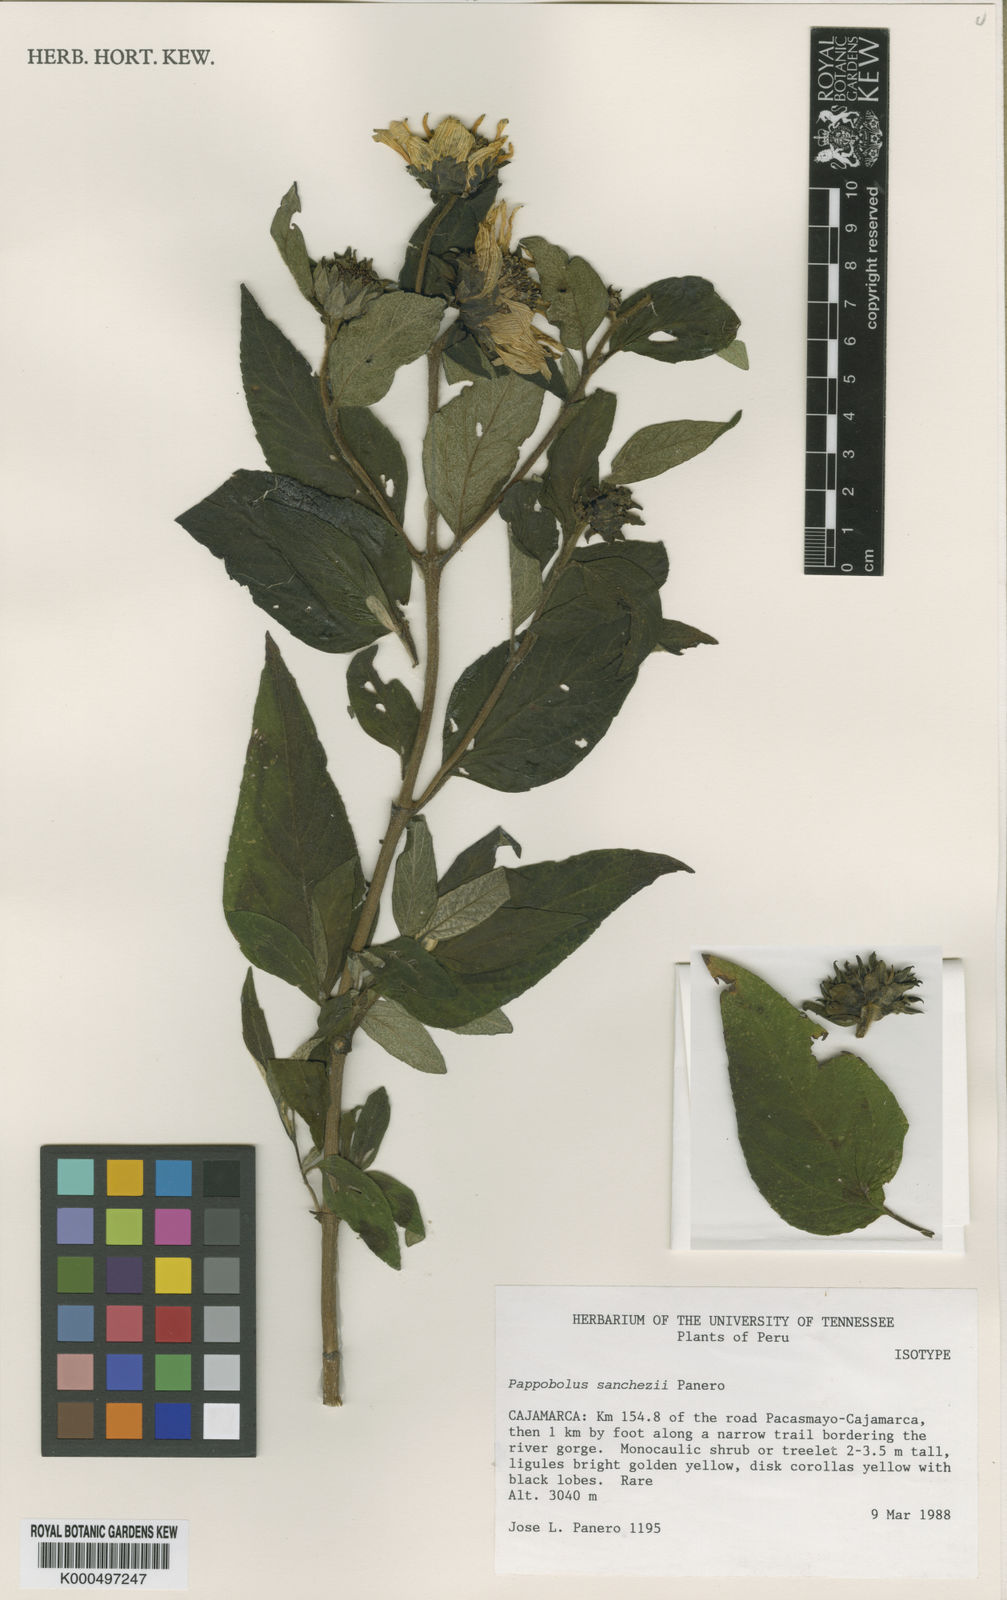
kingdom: Plantae
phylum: Tracheophyta
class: Magnoliopsida
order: Asterales
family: Asteraceae
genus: Pappobolus
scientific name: Pappobolus sanchezii
